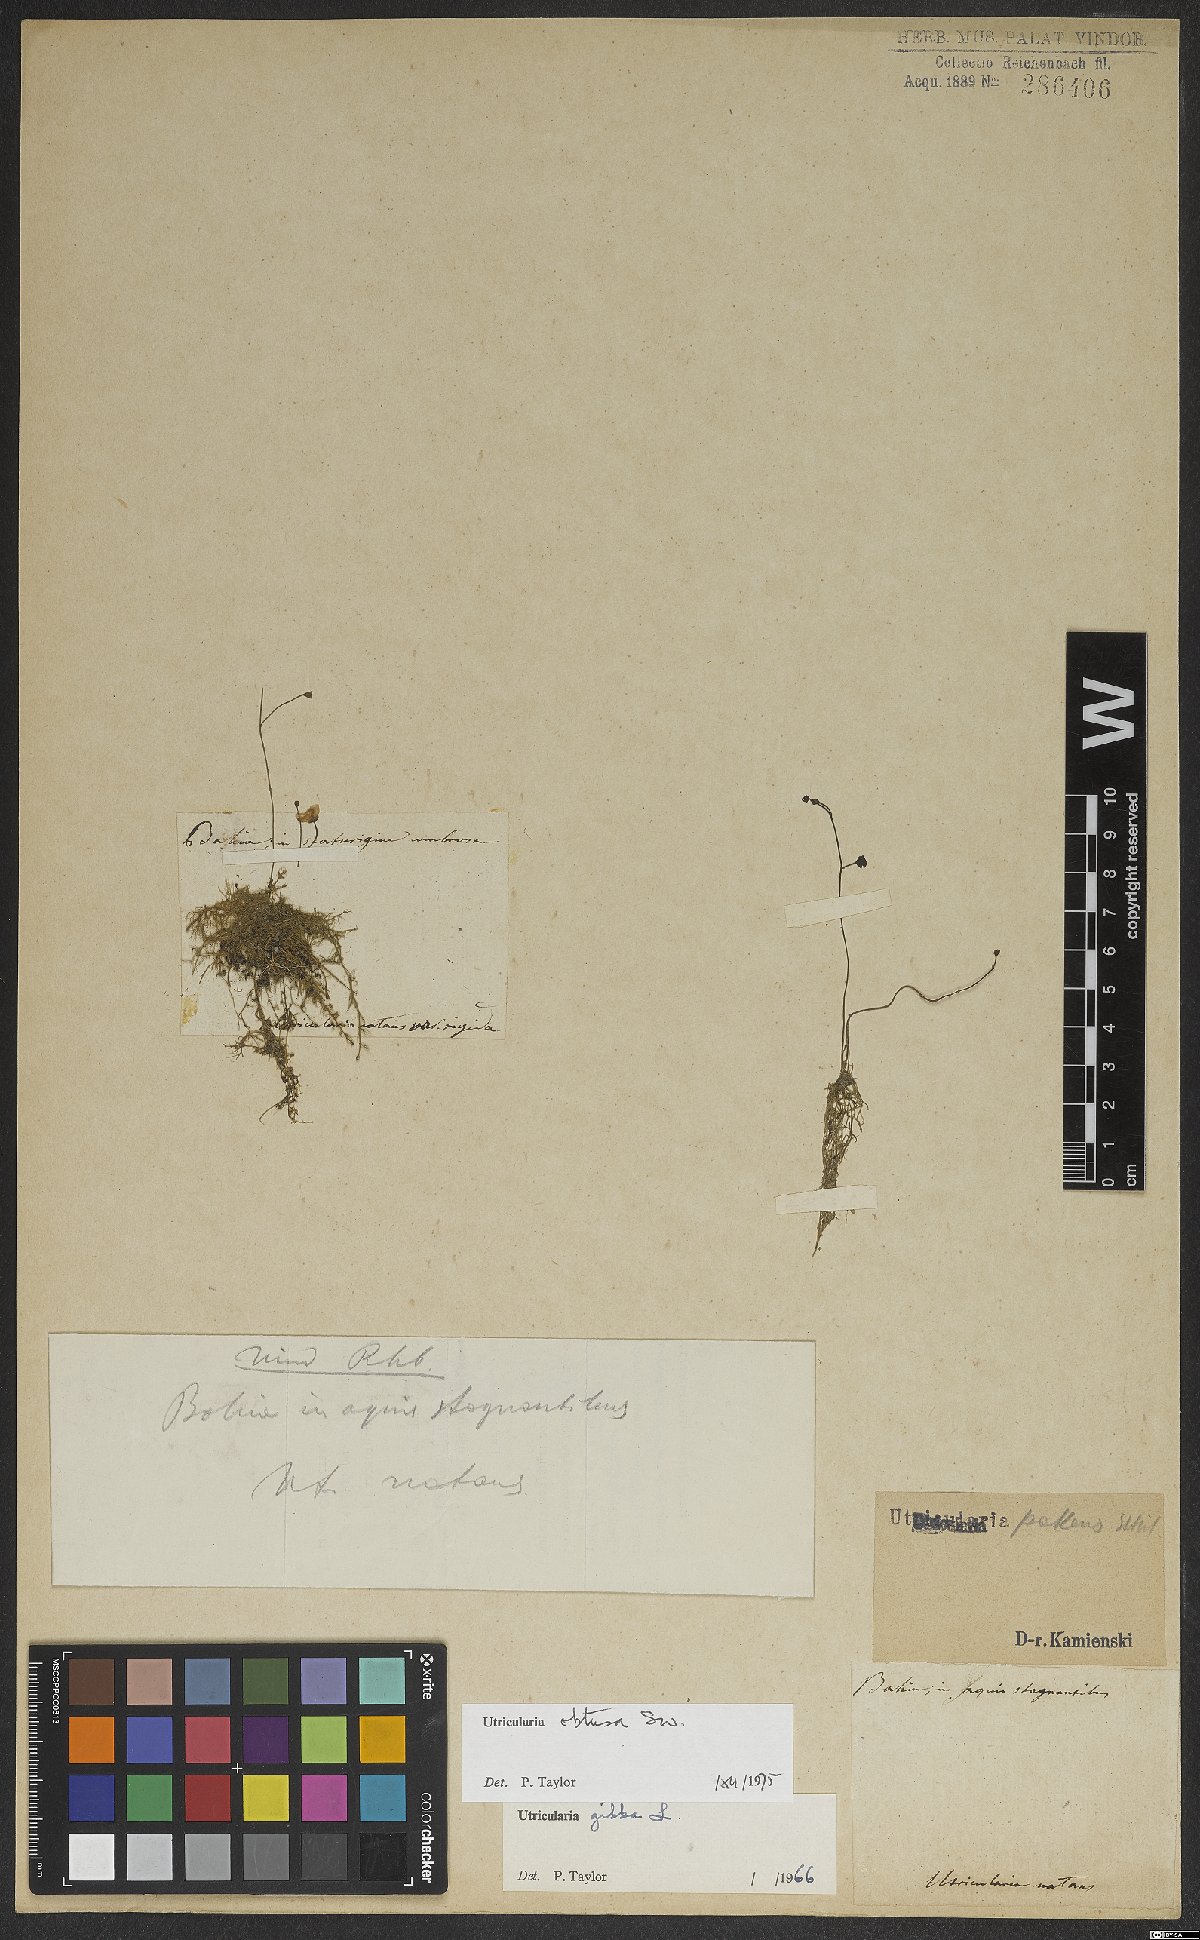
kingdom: Plantae
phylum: Tracheophyta
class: Magnoliopsida
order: Lamiales
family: Lentibulariaceae
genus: Utricularia
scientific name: Utricularia gibba
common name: Humped bladderwort
